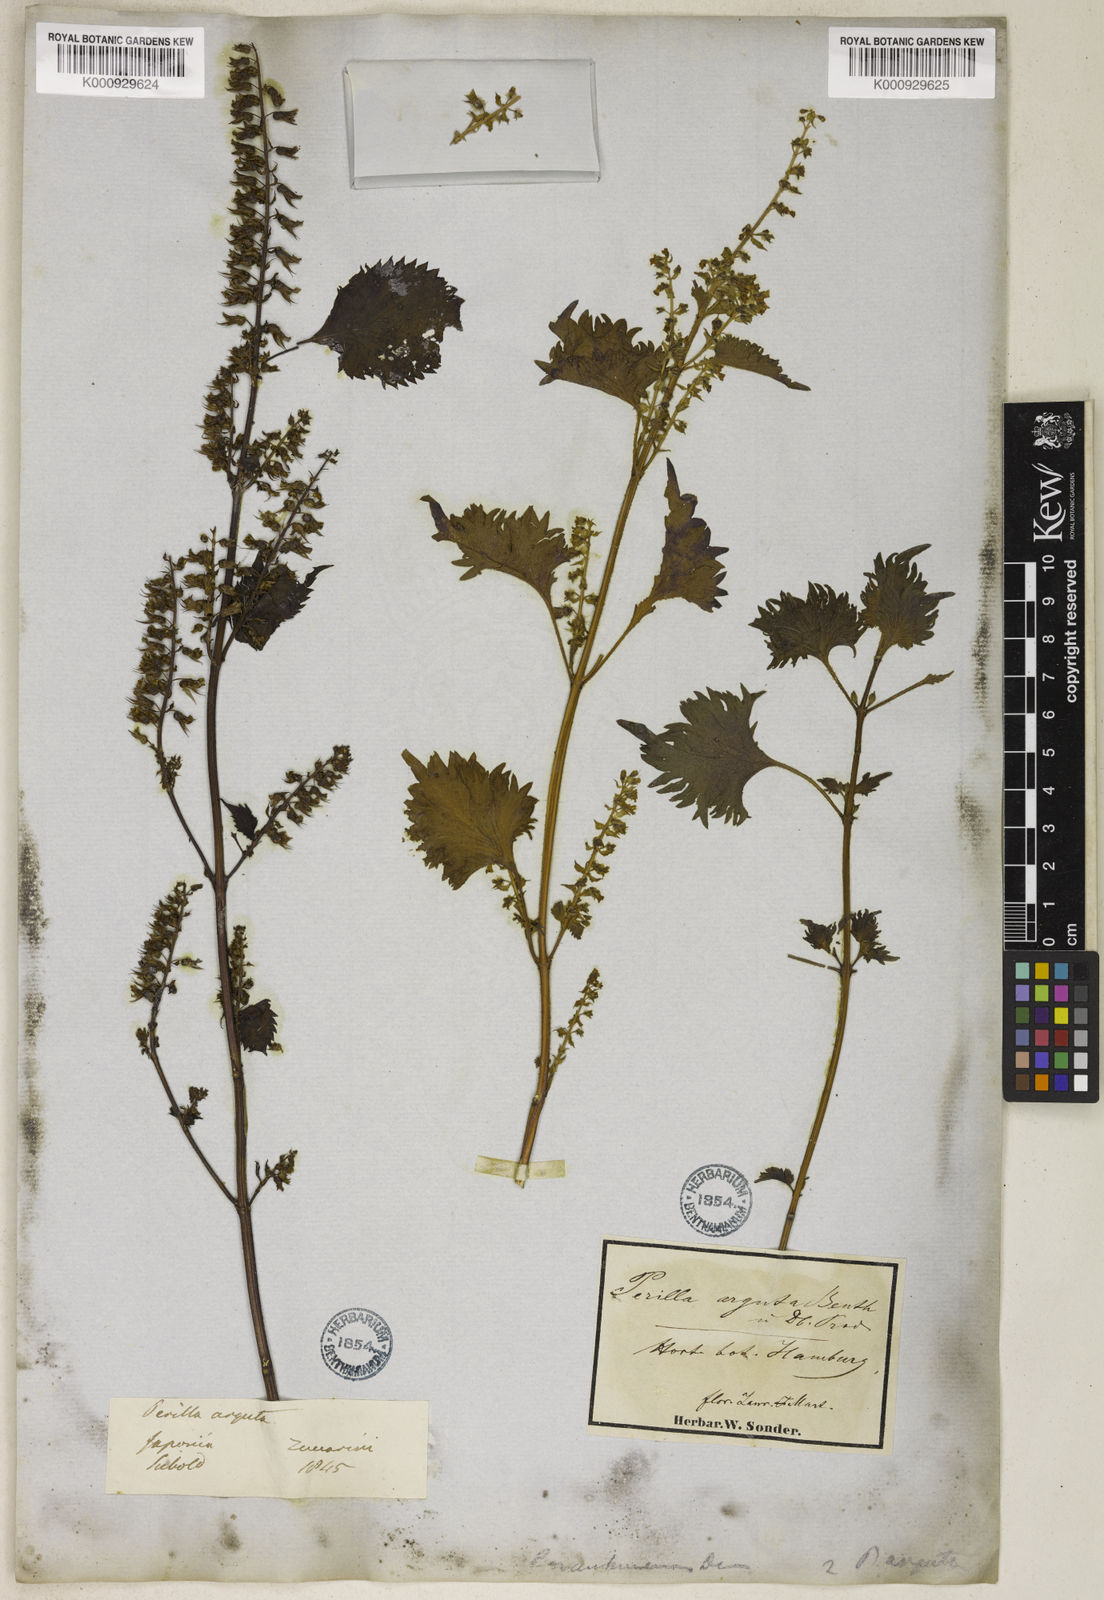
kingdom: Plantae
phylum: Tracheophyta
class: Magnoliopsida
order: Lamiales
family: Lamiaceae
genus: Perilla
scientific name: Perilla frutescens
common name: Perilla
